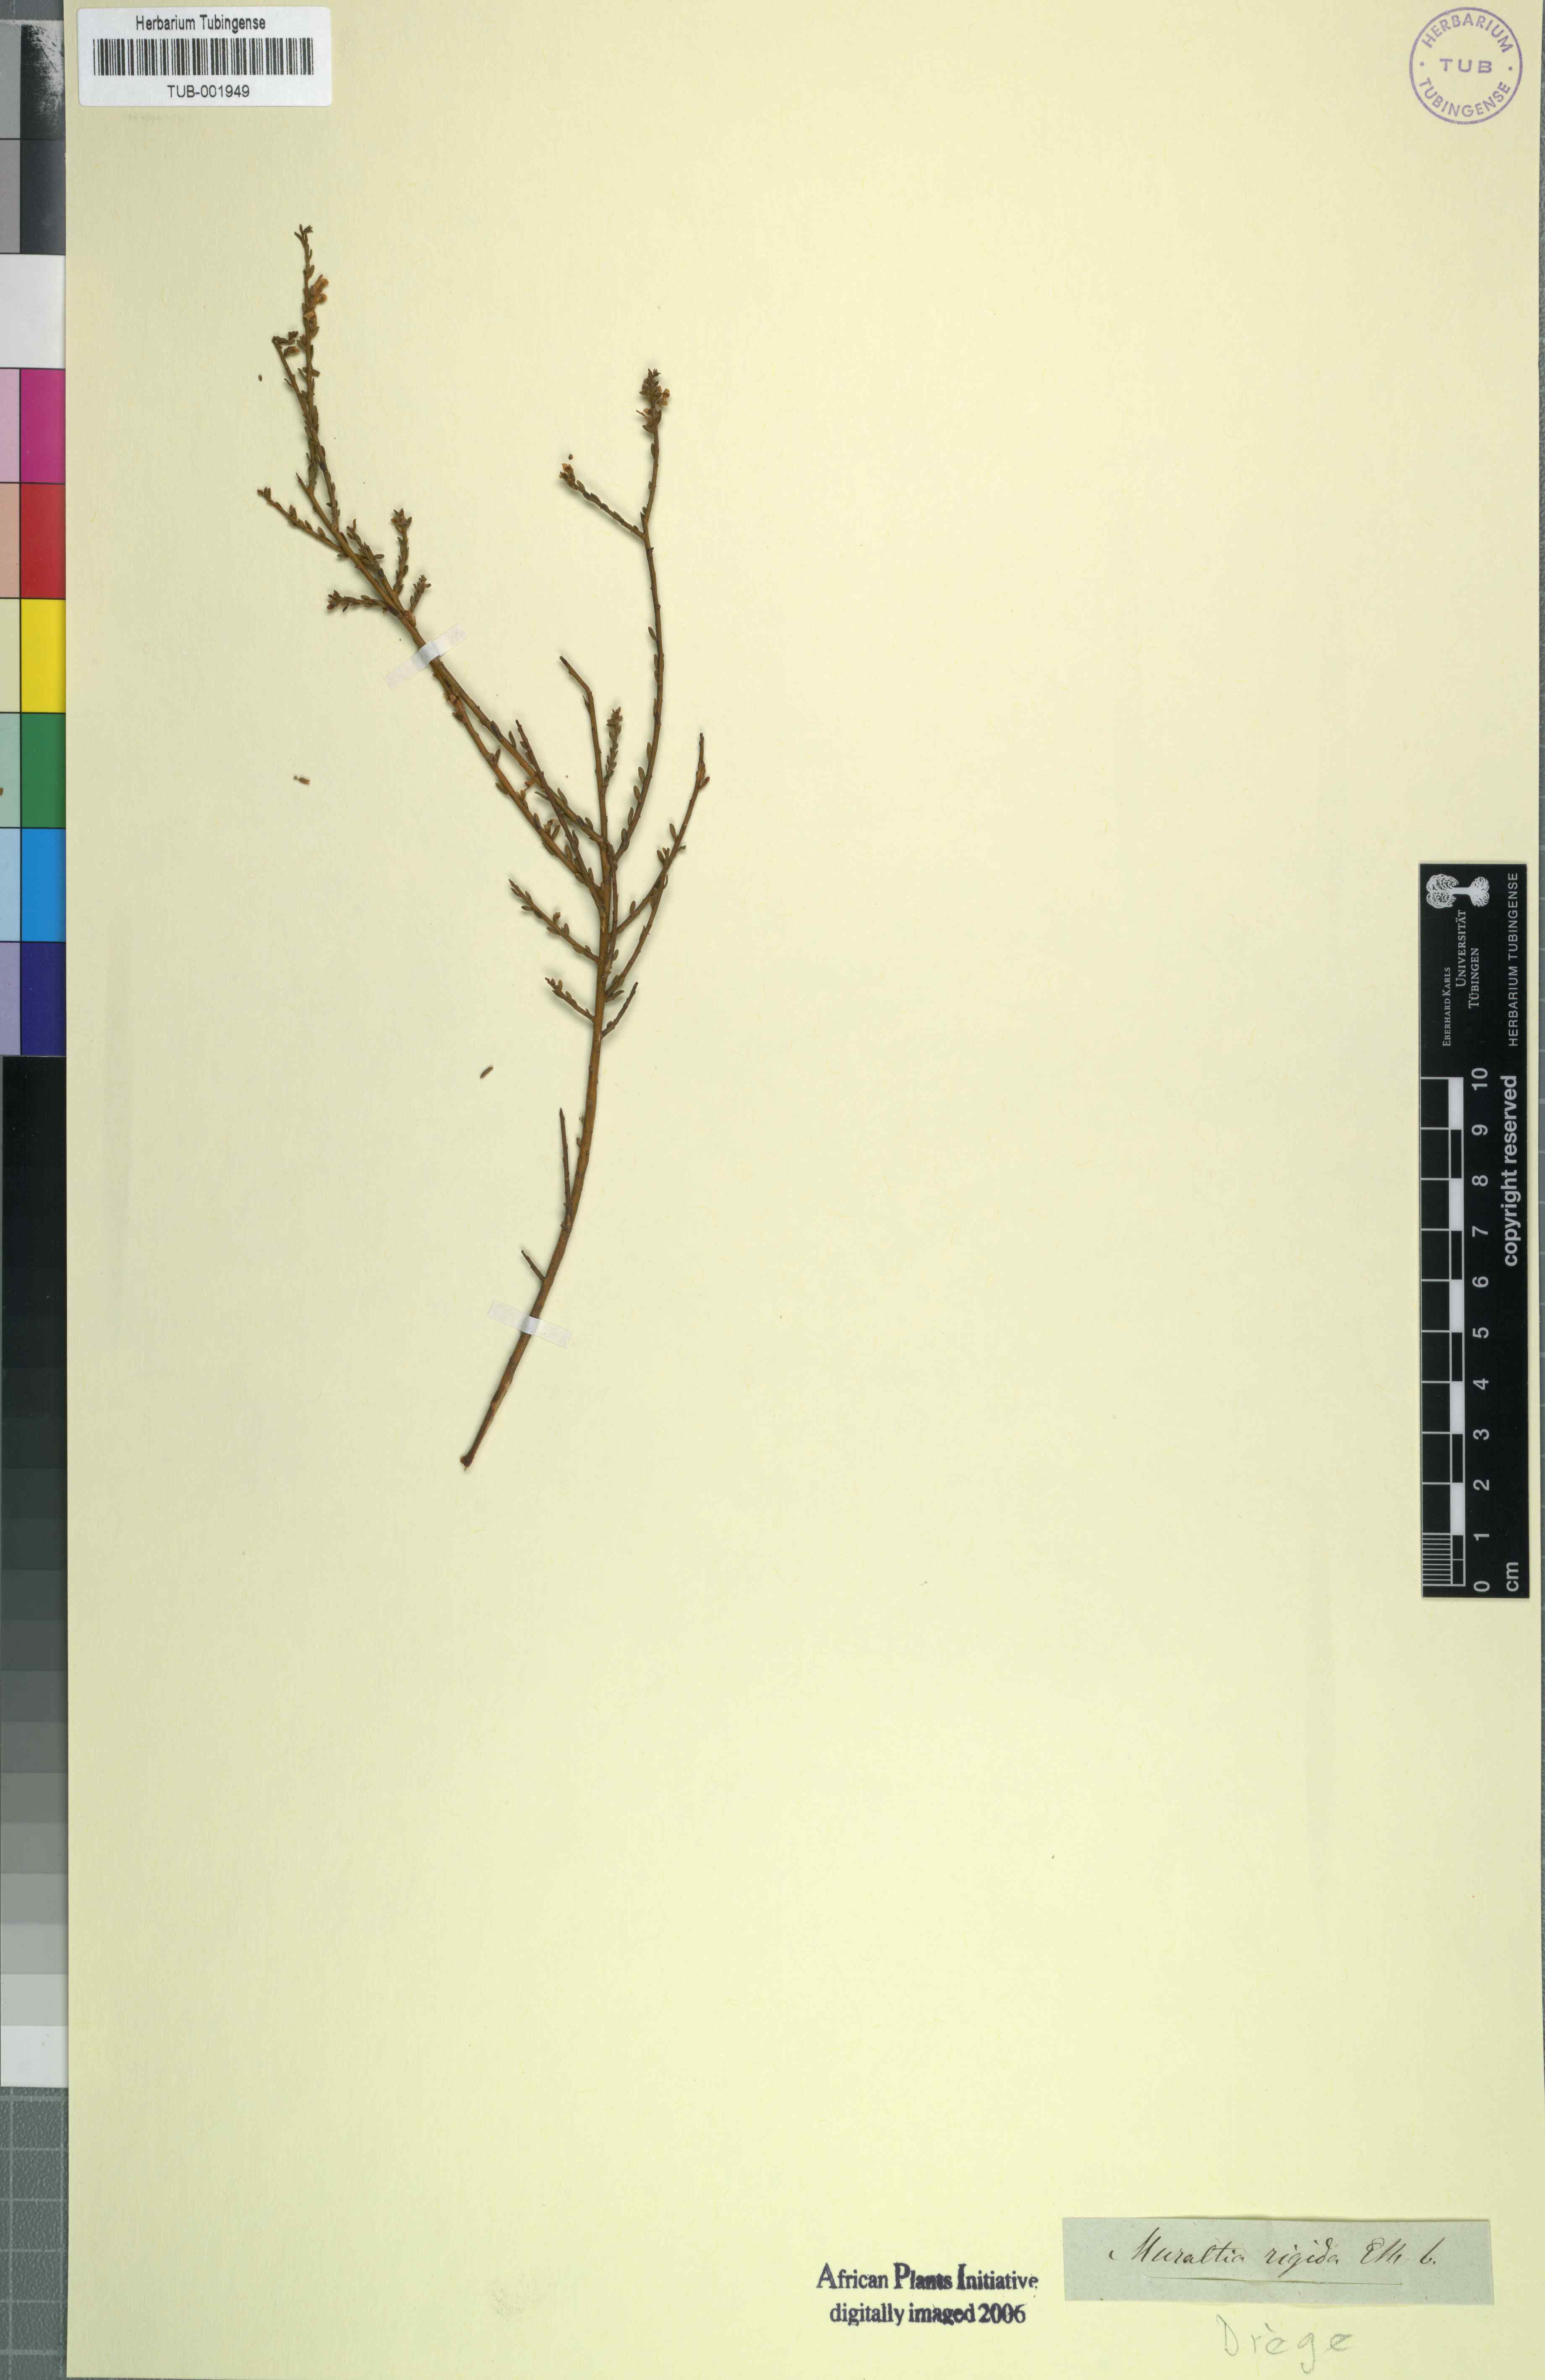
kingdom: Plantae
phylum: Tracheophyta
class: Magnoliopsida
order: Fabales
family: Polygalaceae
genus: Muraltia
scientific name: Muraltia rigida
